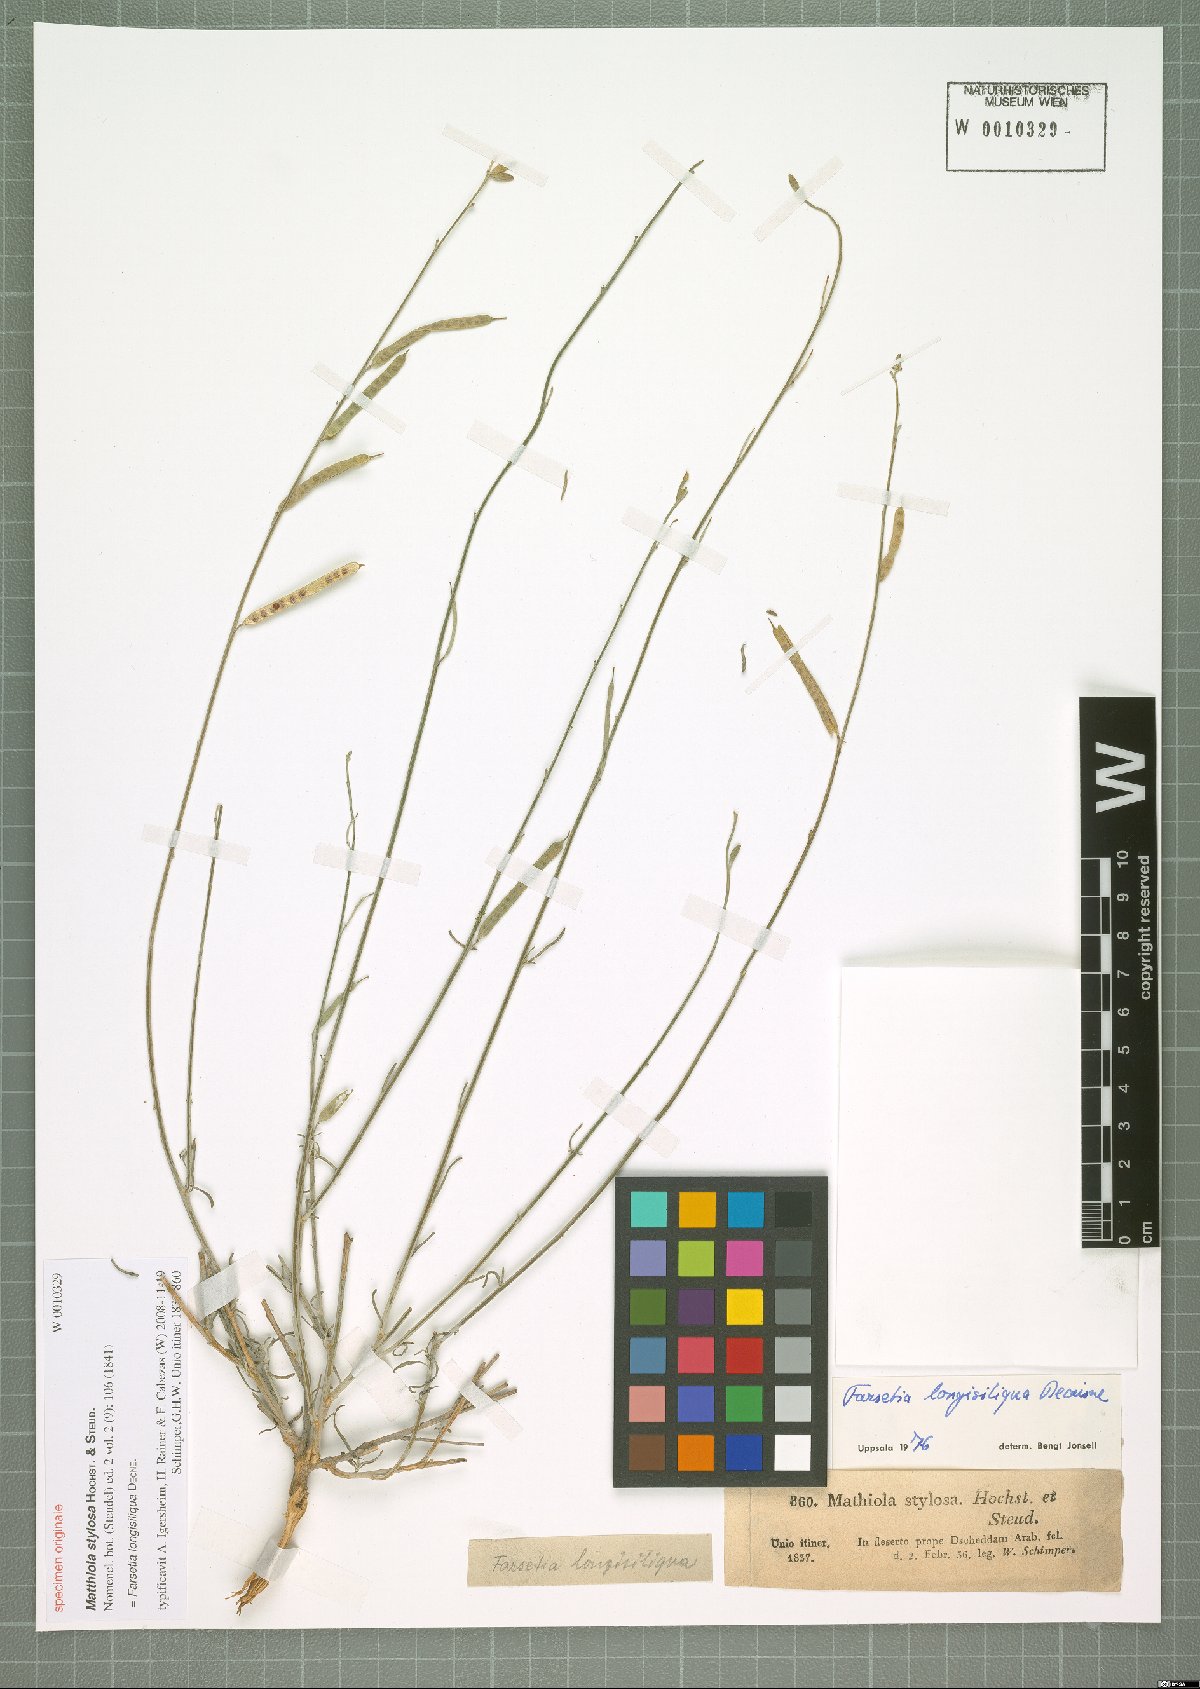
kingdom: Plantae
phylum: Tracheophyta
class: Magnoliopsida
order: Brassicales
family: Brassicaceae
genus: Farsetia
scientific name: Farsetia longisiliqua
